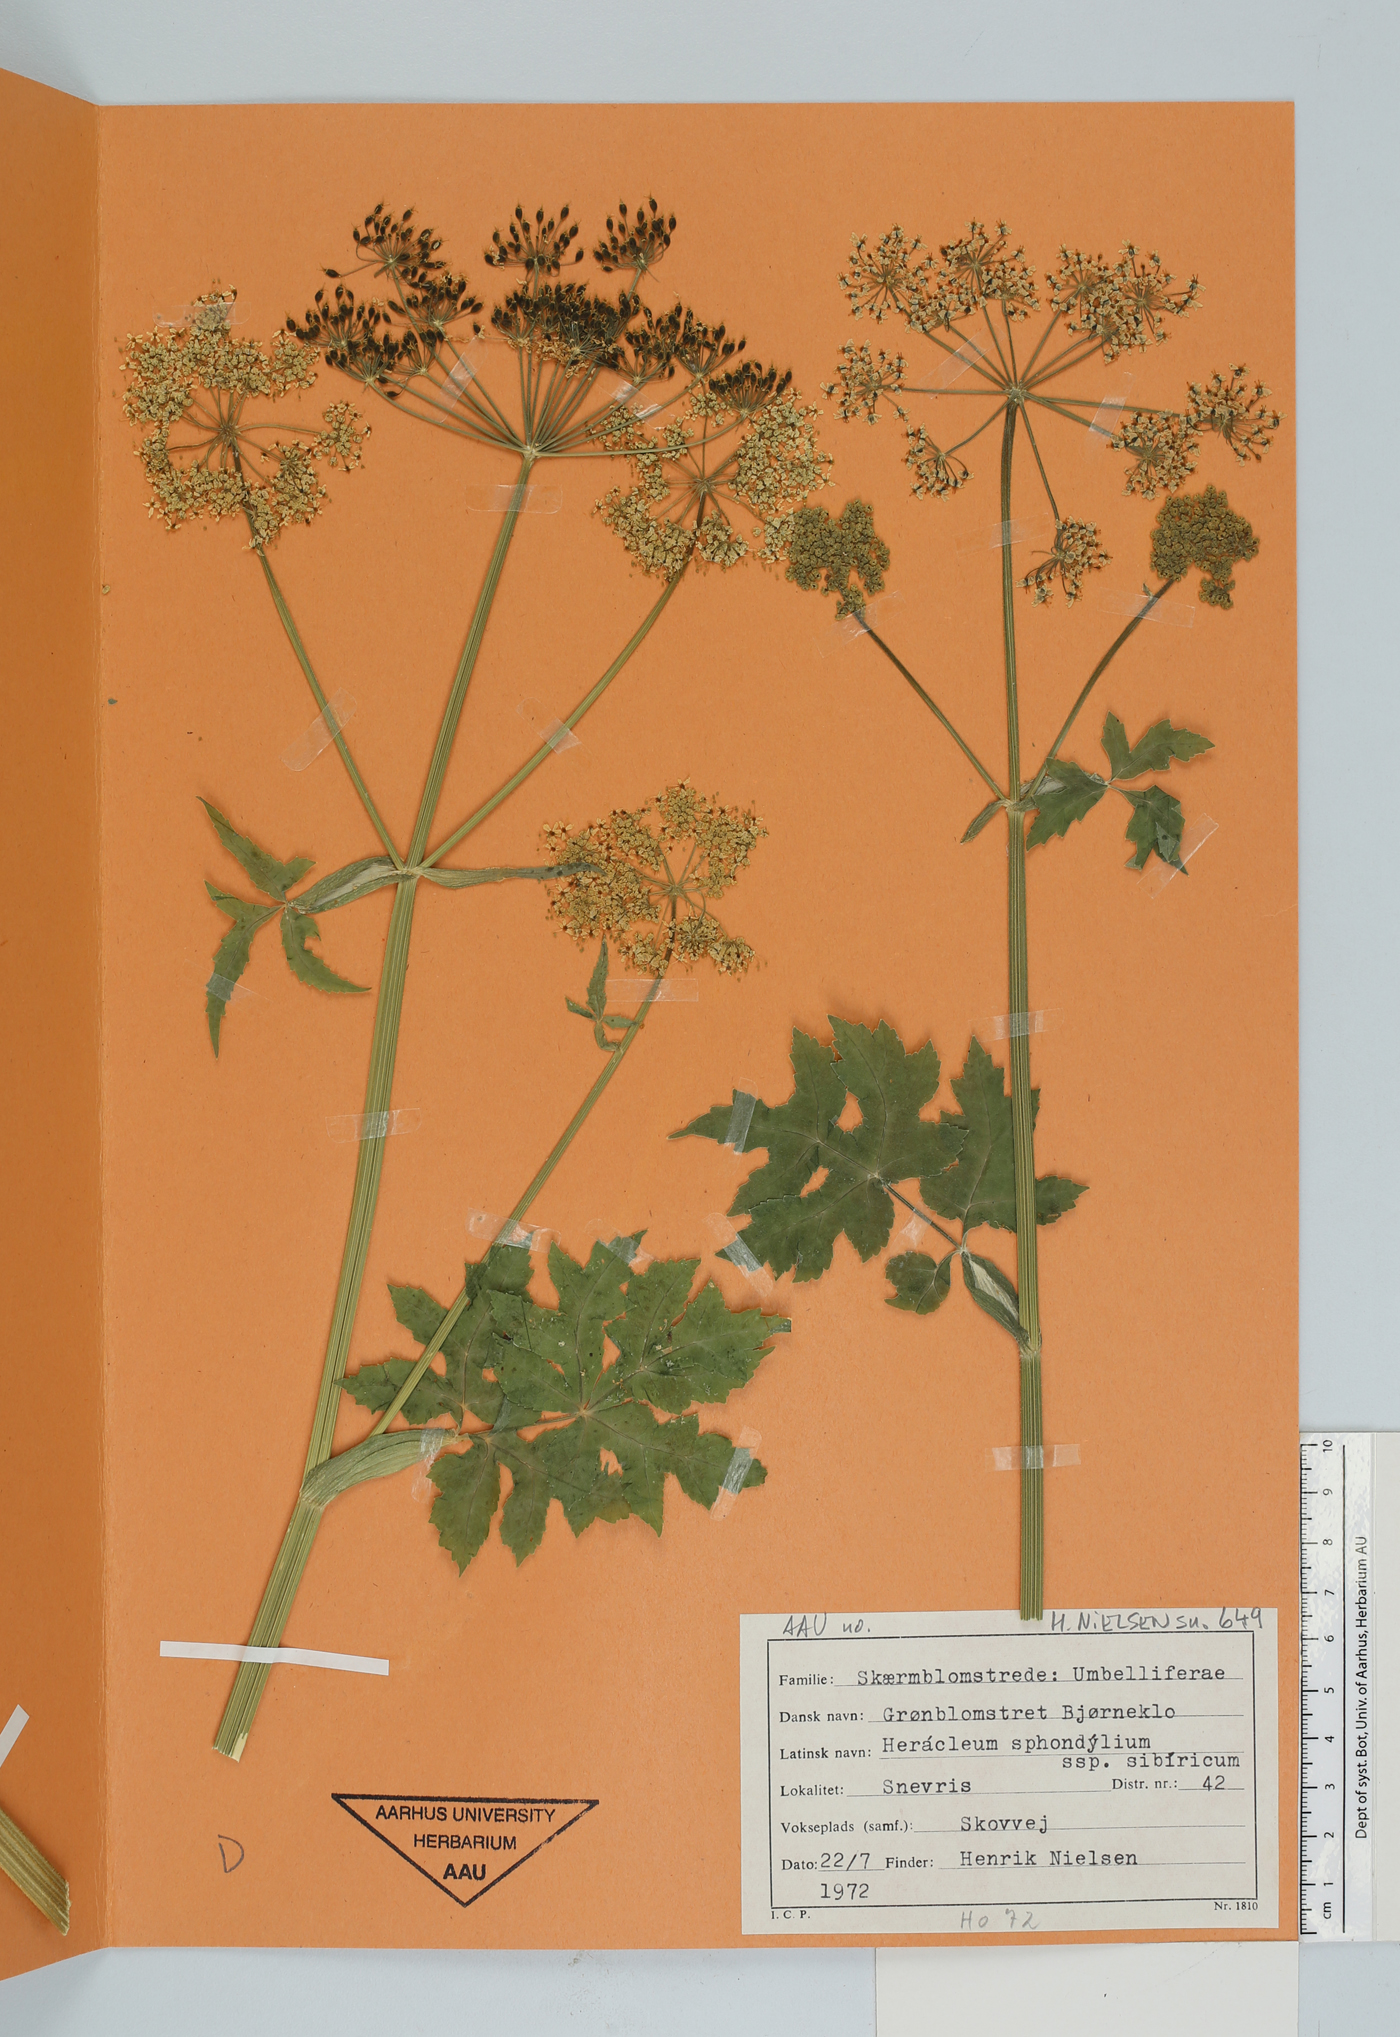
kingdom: Plantae
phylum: Tracheophyta
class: Magnoliopsida
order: Apiales
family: Apiaceae
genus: Heracleum
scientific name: Heracleum sphondylium
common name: Hogweed
